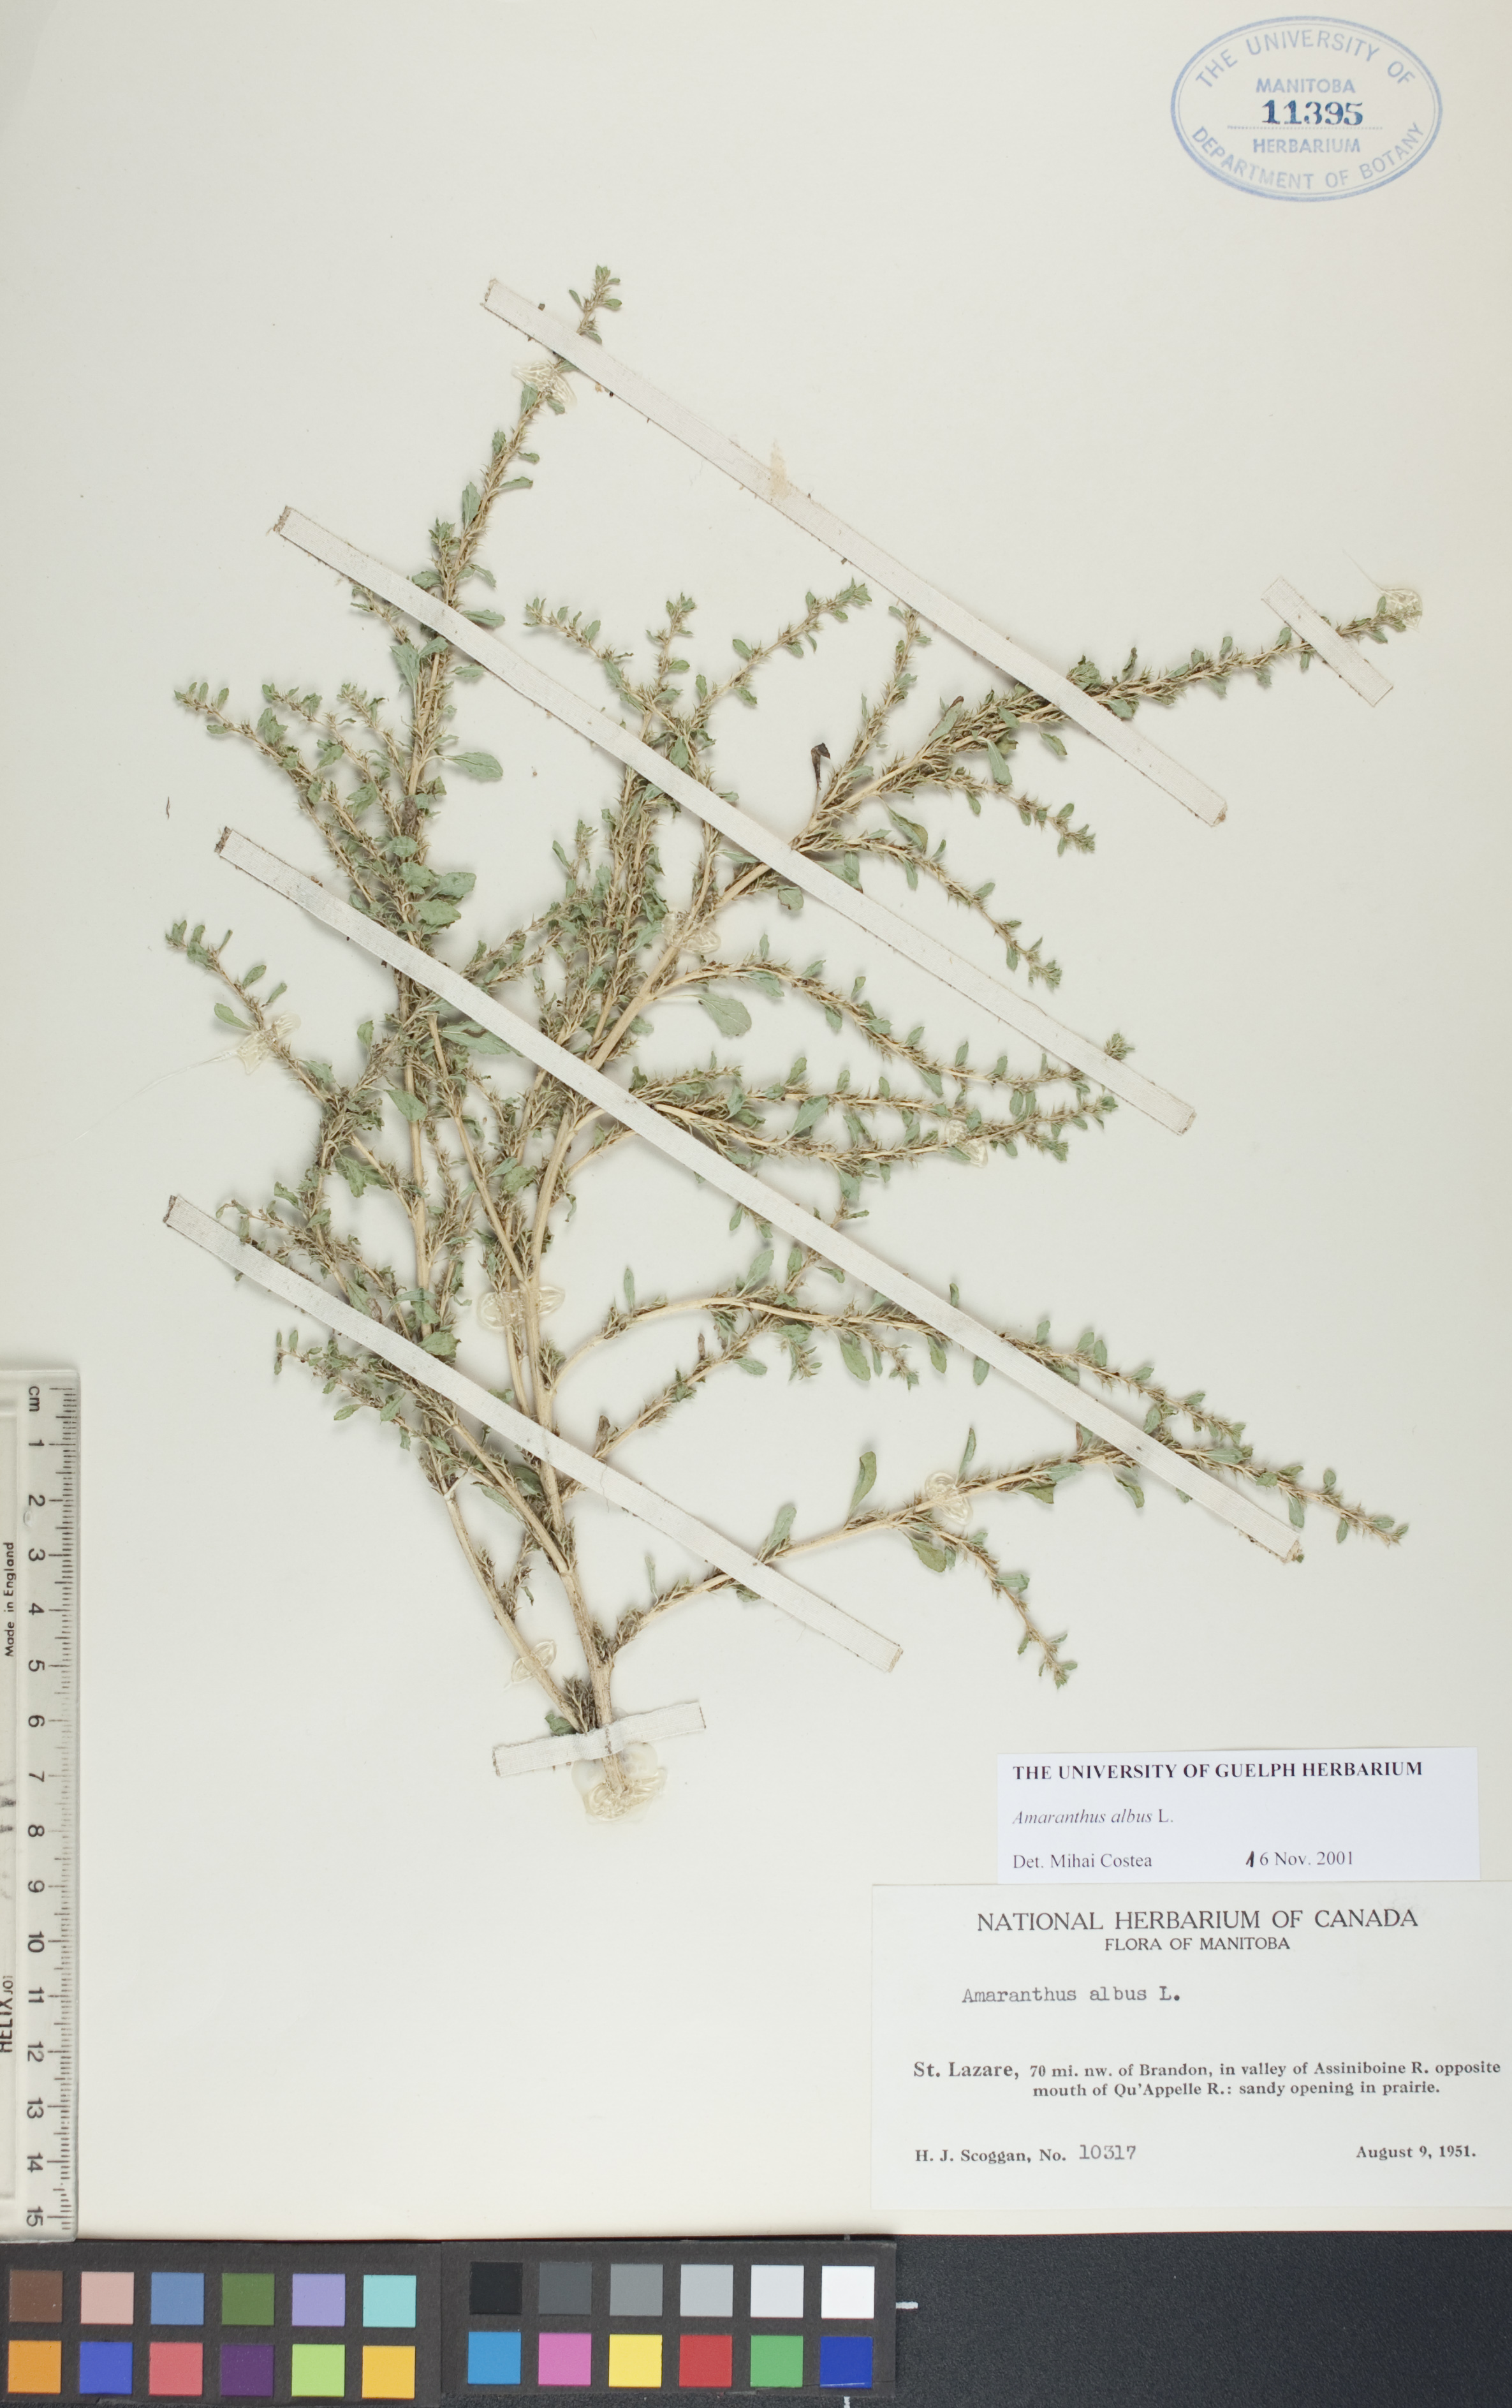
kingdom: Plantae
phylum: Tracheophyta
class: Magnoliopsida
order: Caryophyllales
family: Amaranthaceae
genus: Amaranthus
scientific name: Amaranthus albus
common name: White pigweed
